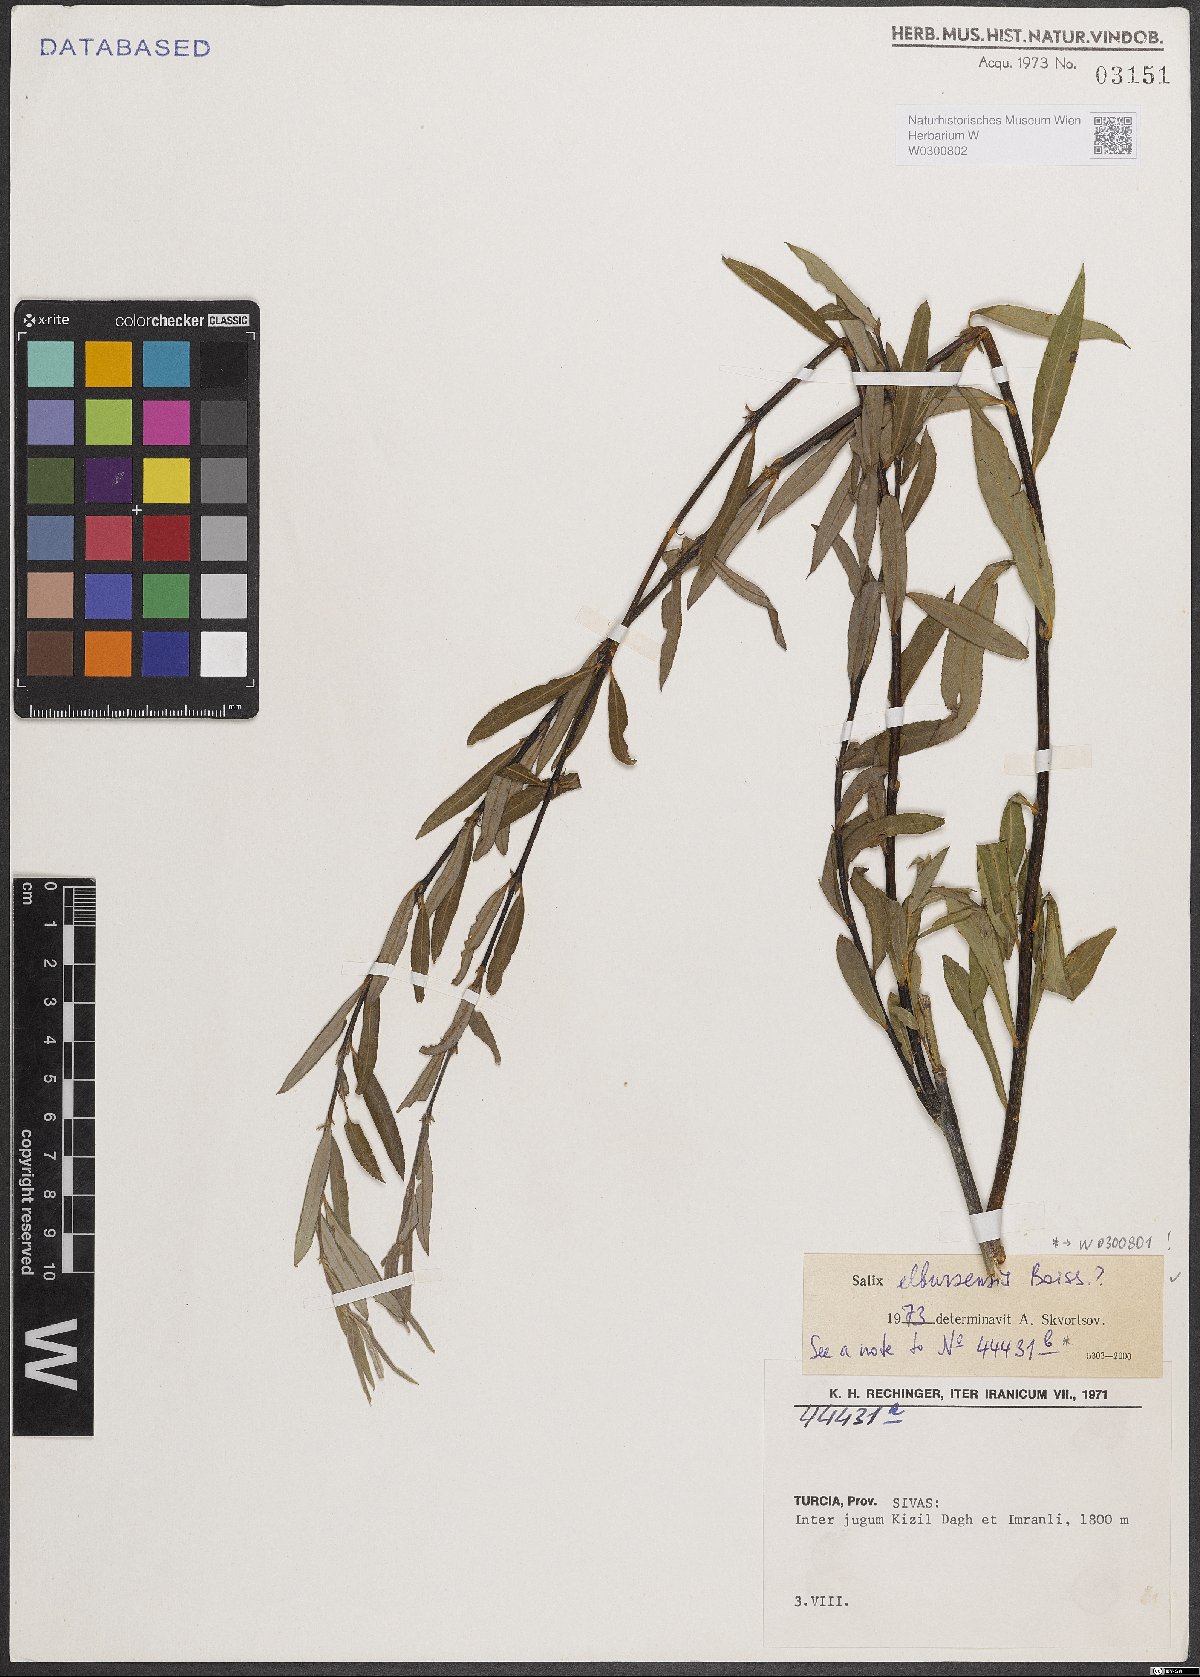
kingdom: Plantae
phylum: Tracheophyta
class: Magnoliopsida
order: Malpighiales
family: Salicaceae
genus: Salix
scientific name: Salix elbursensis
